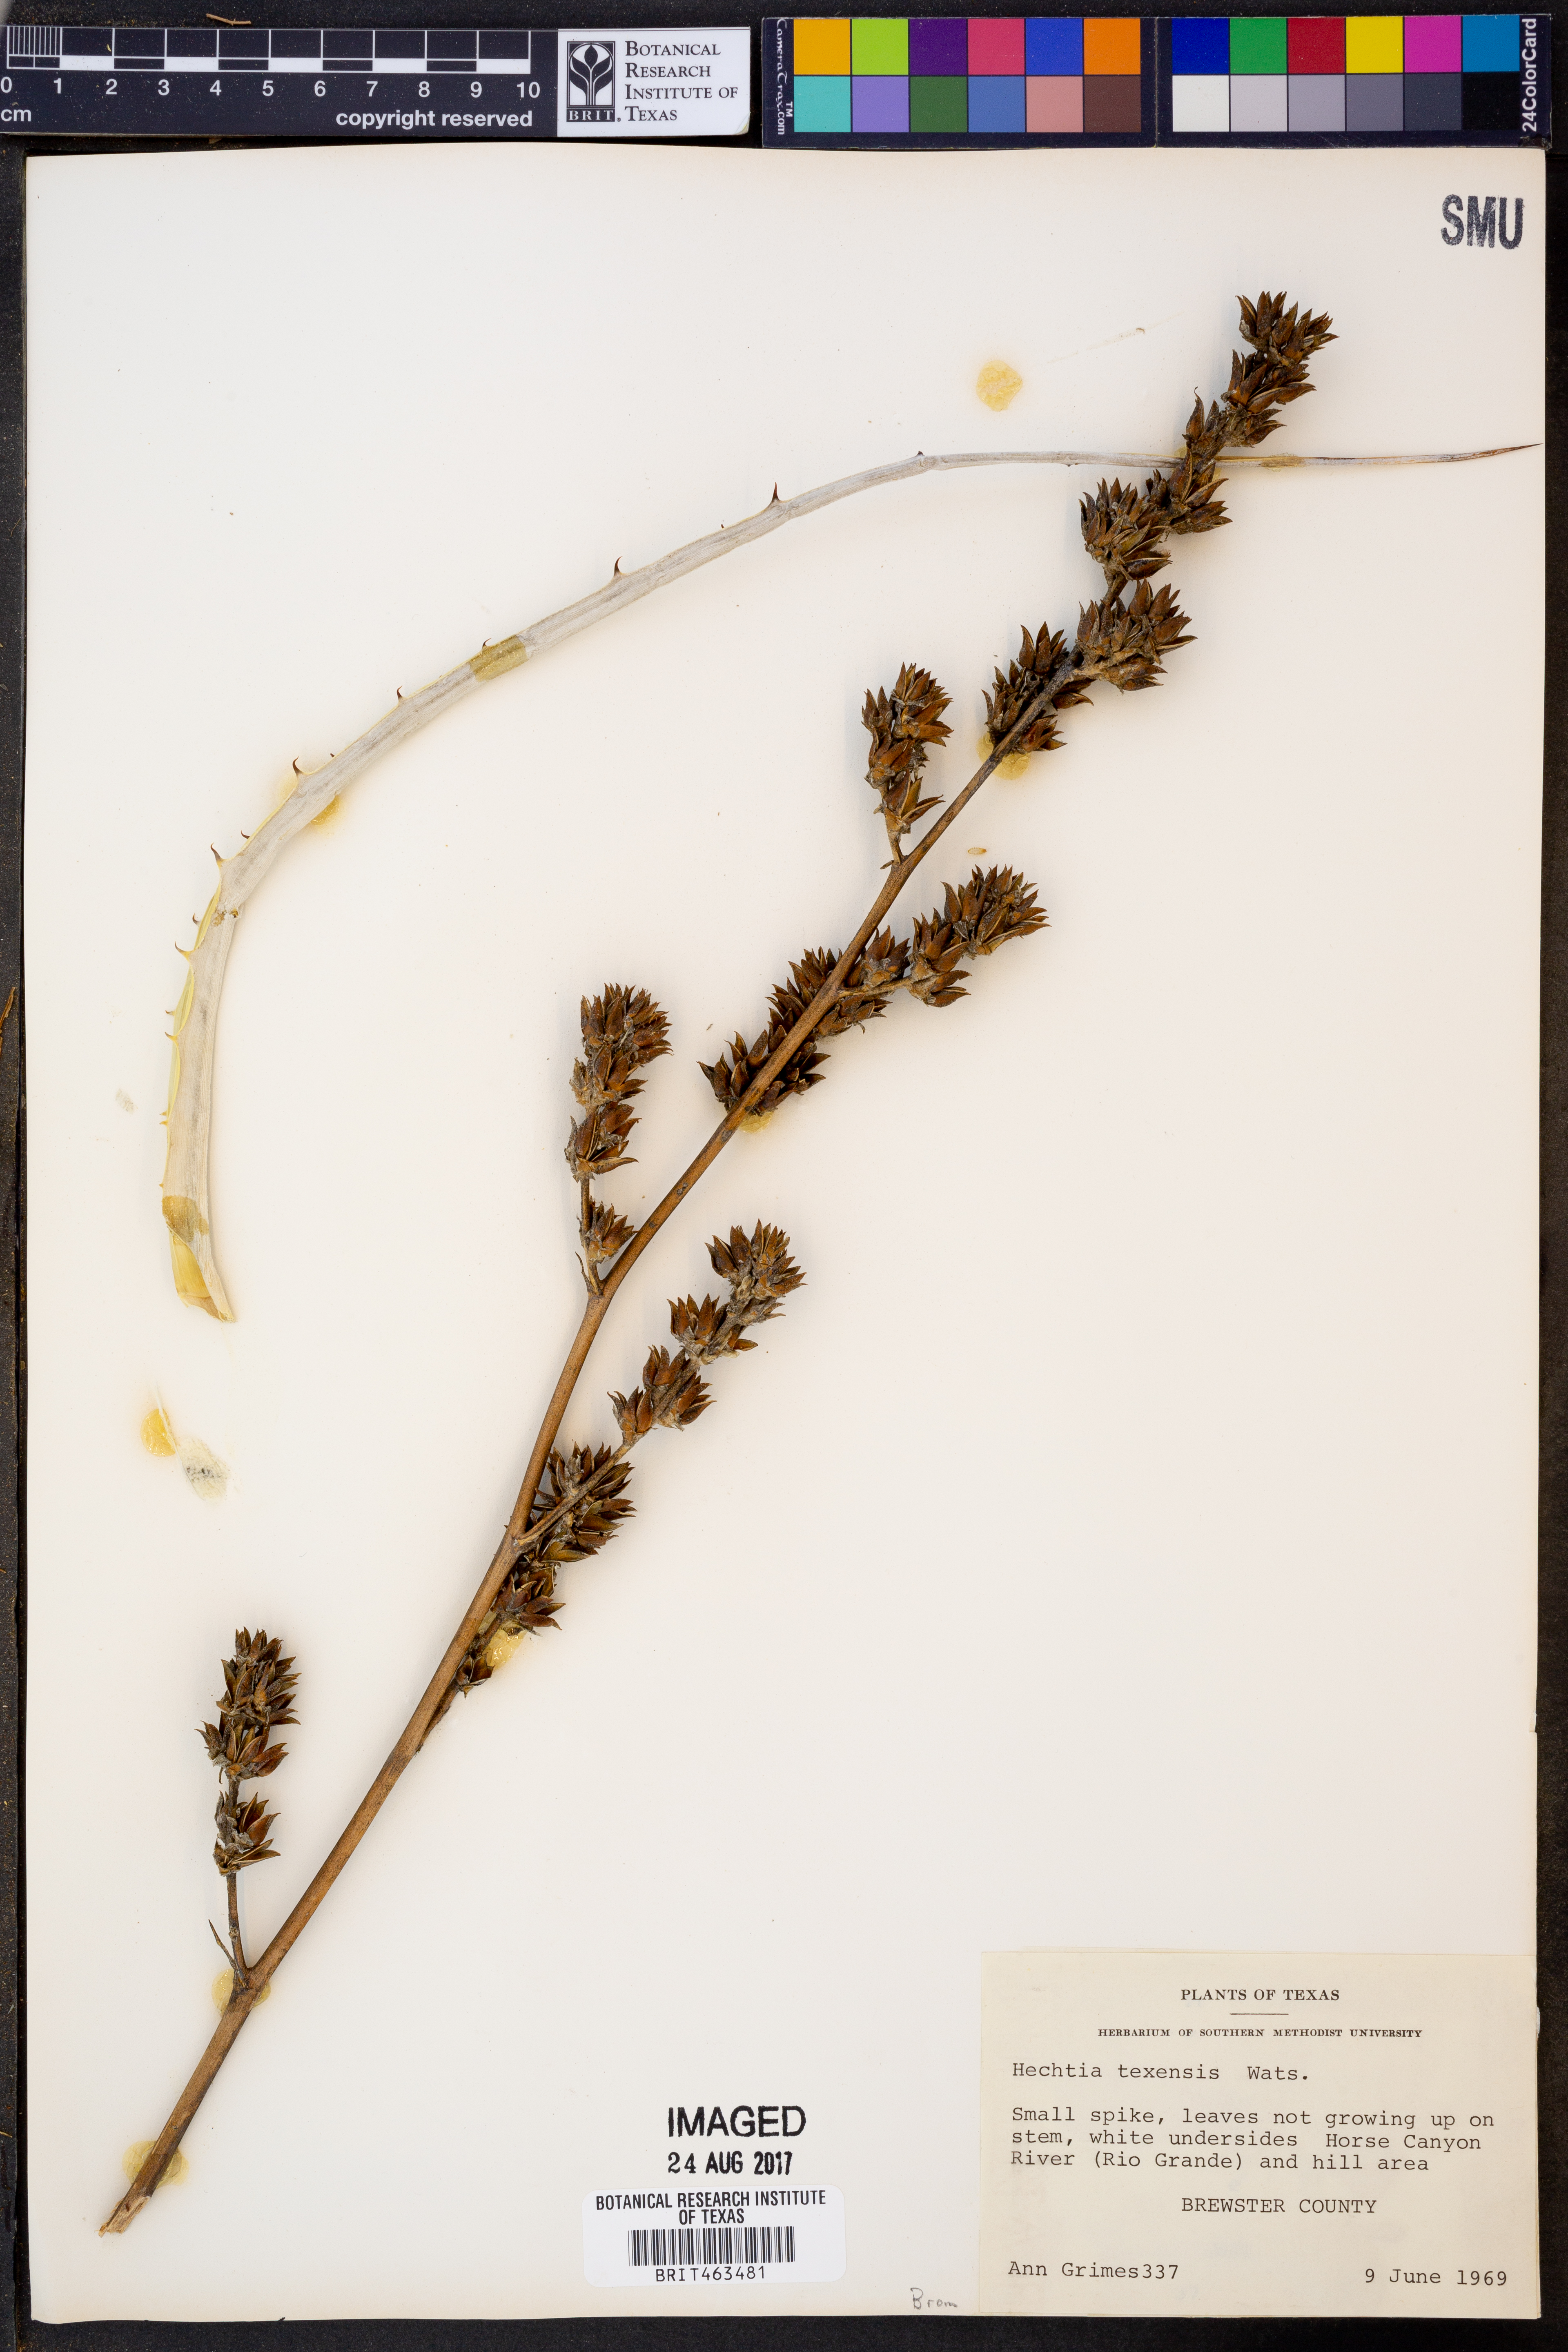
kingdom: Plantae
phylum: Tracheophyta
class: Liliopsida
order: Poales
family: Bromeliaceae
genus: Hechtia
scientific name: Hechtia texensis
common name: False agave
